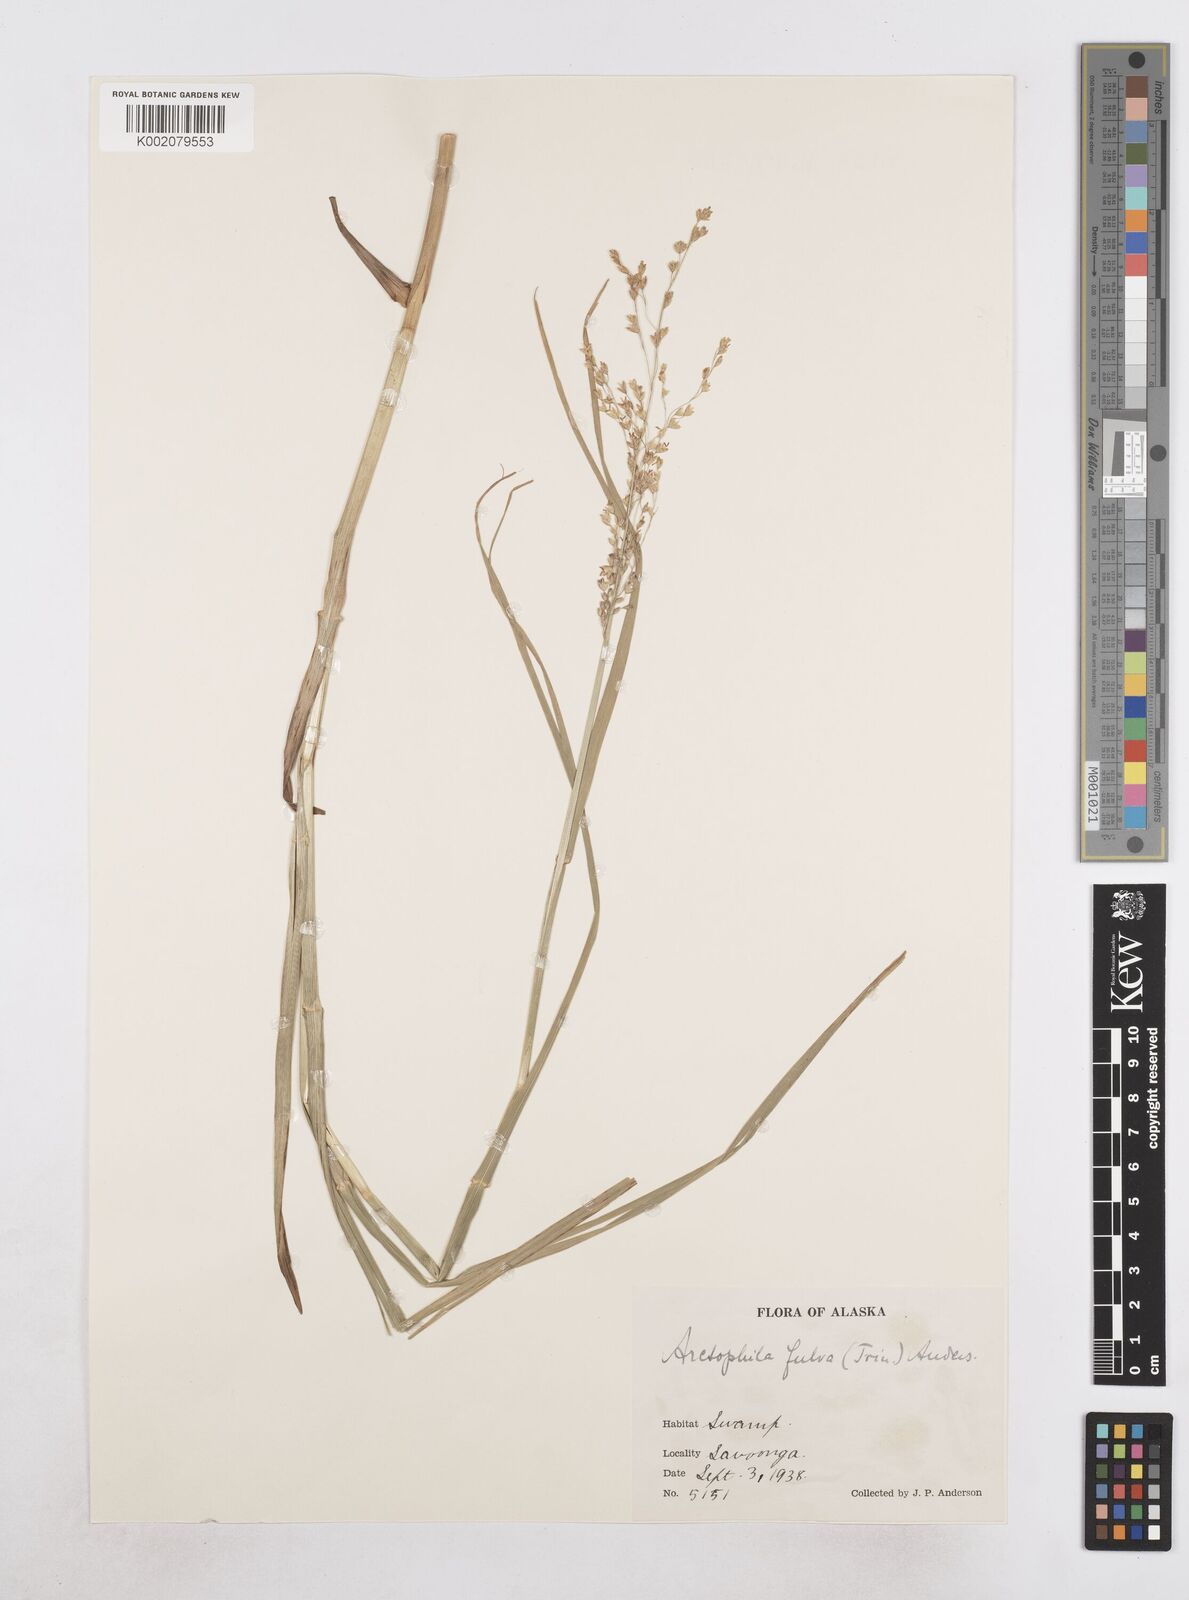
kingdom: Plantae
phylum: Tracheophyta
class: Liliopsida
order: Poales
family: Poaceae
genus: Dupontia
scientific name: Dupontia fulva
